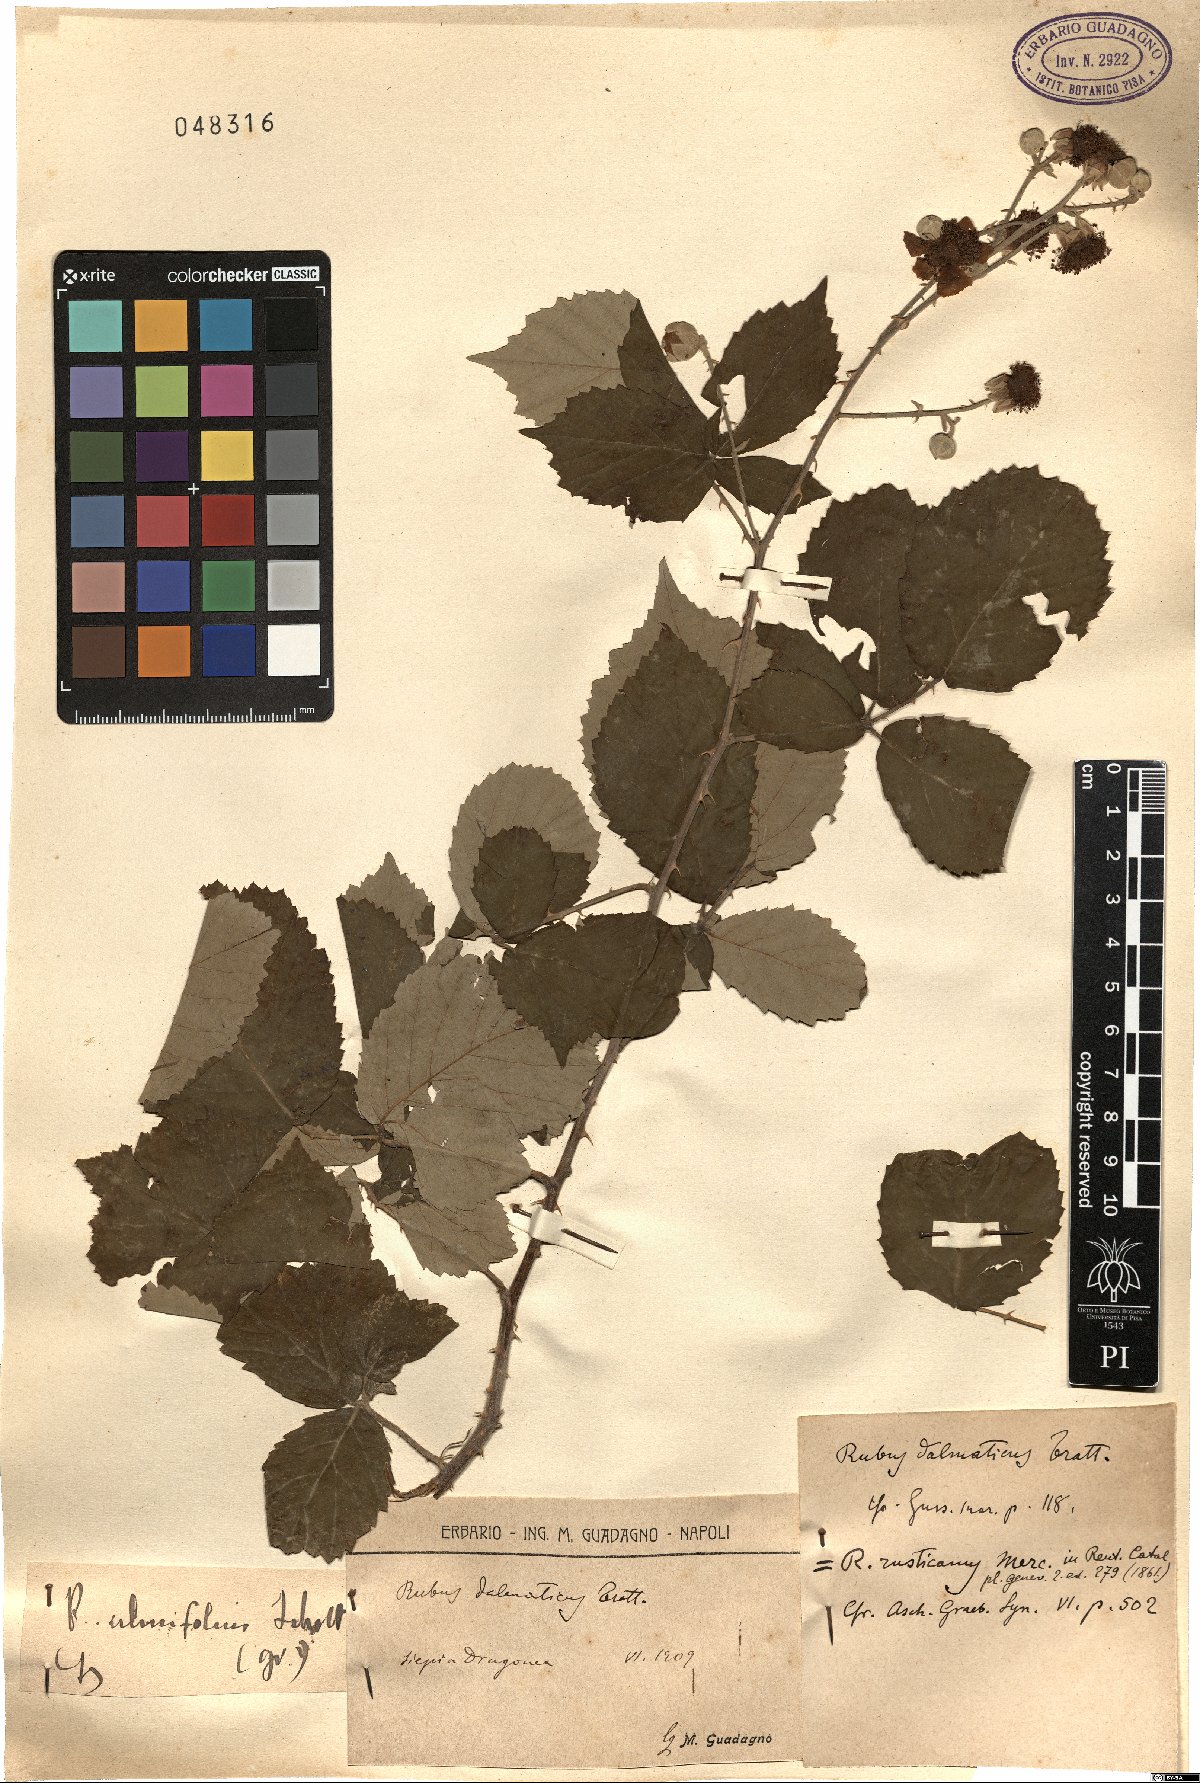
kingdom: Plantae
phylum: Tracheophyta
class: Magnoliopsida
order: Rosales
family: Rosaceae
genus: Rubus
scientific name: Rubus ulmifolius
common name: Elmleaf blackberry
